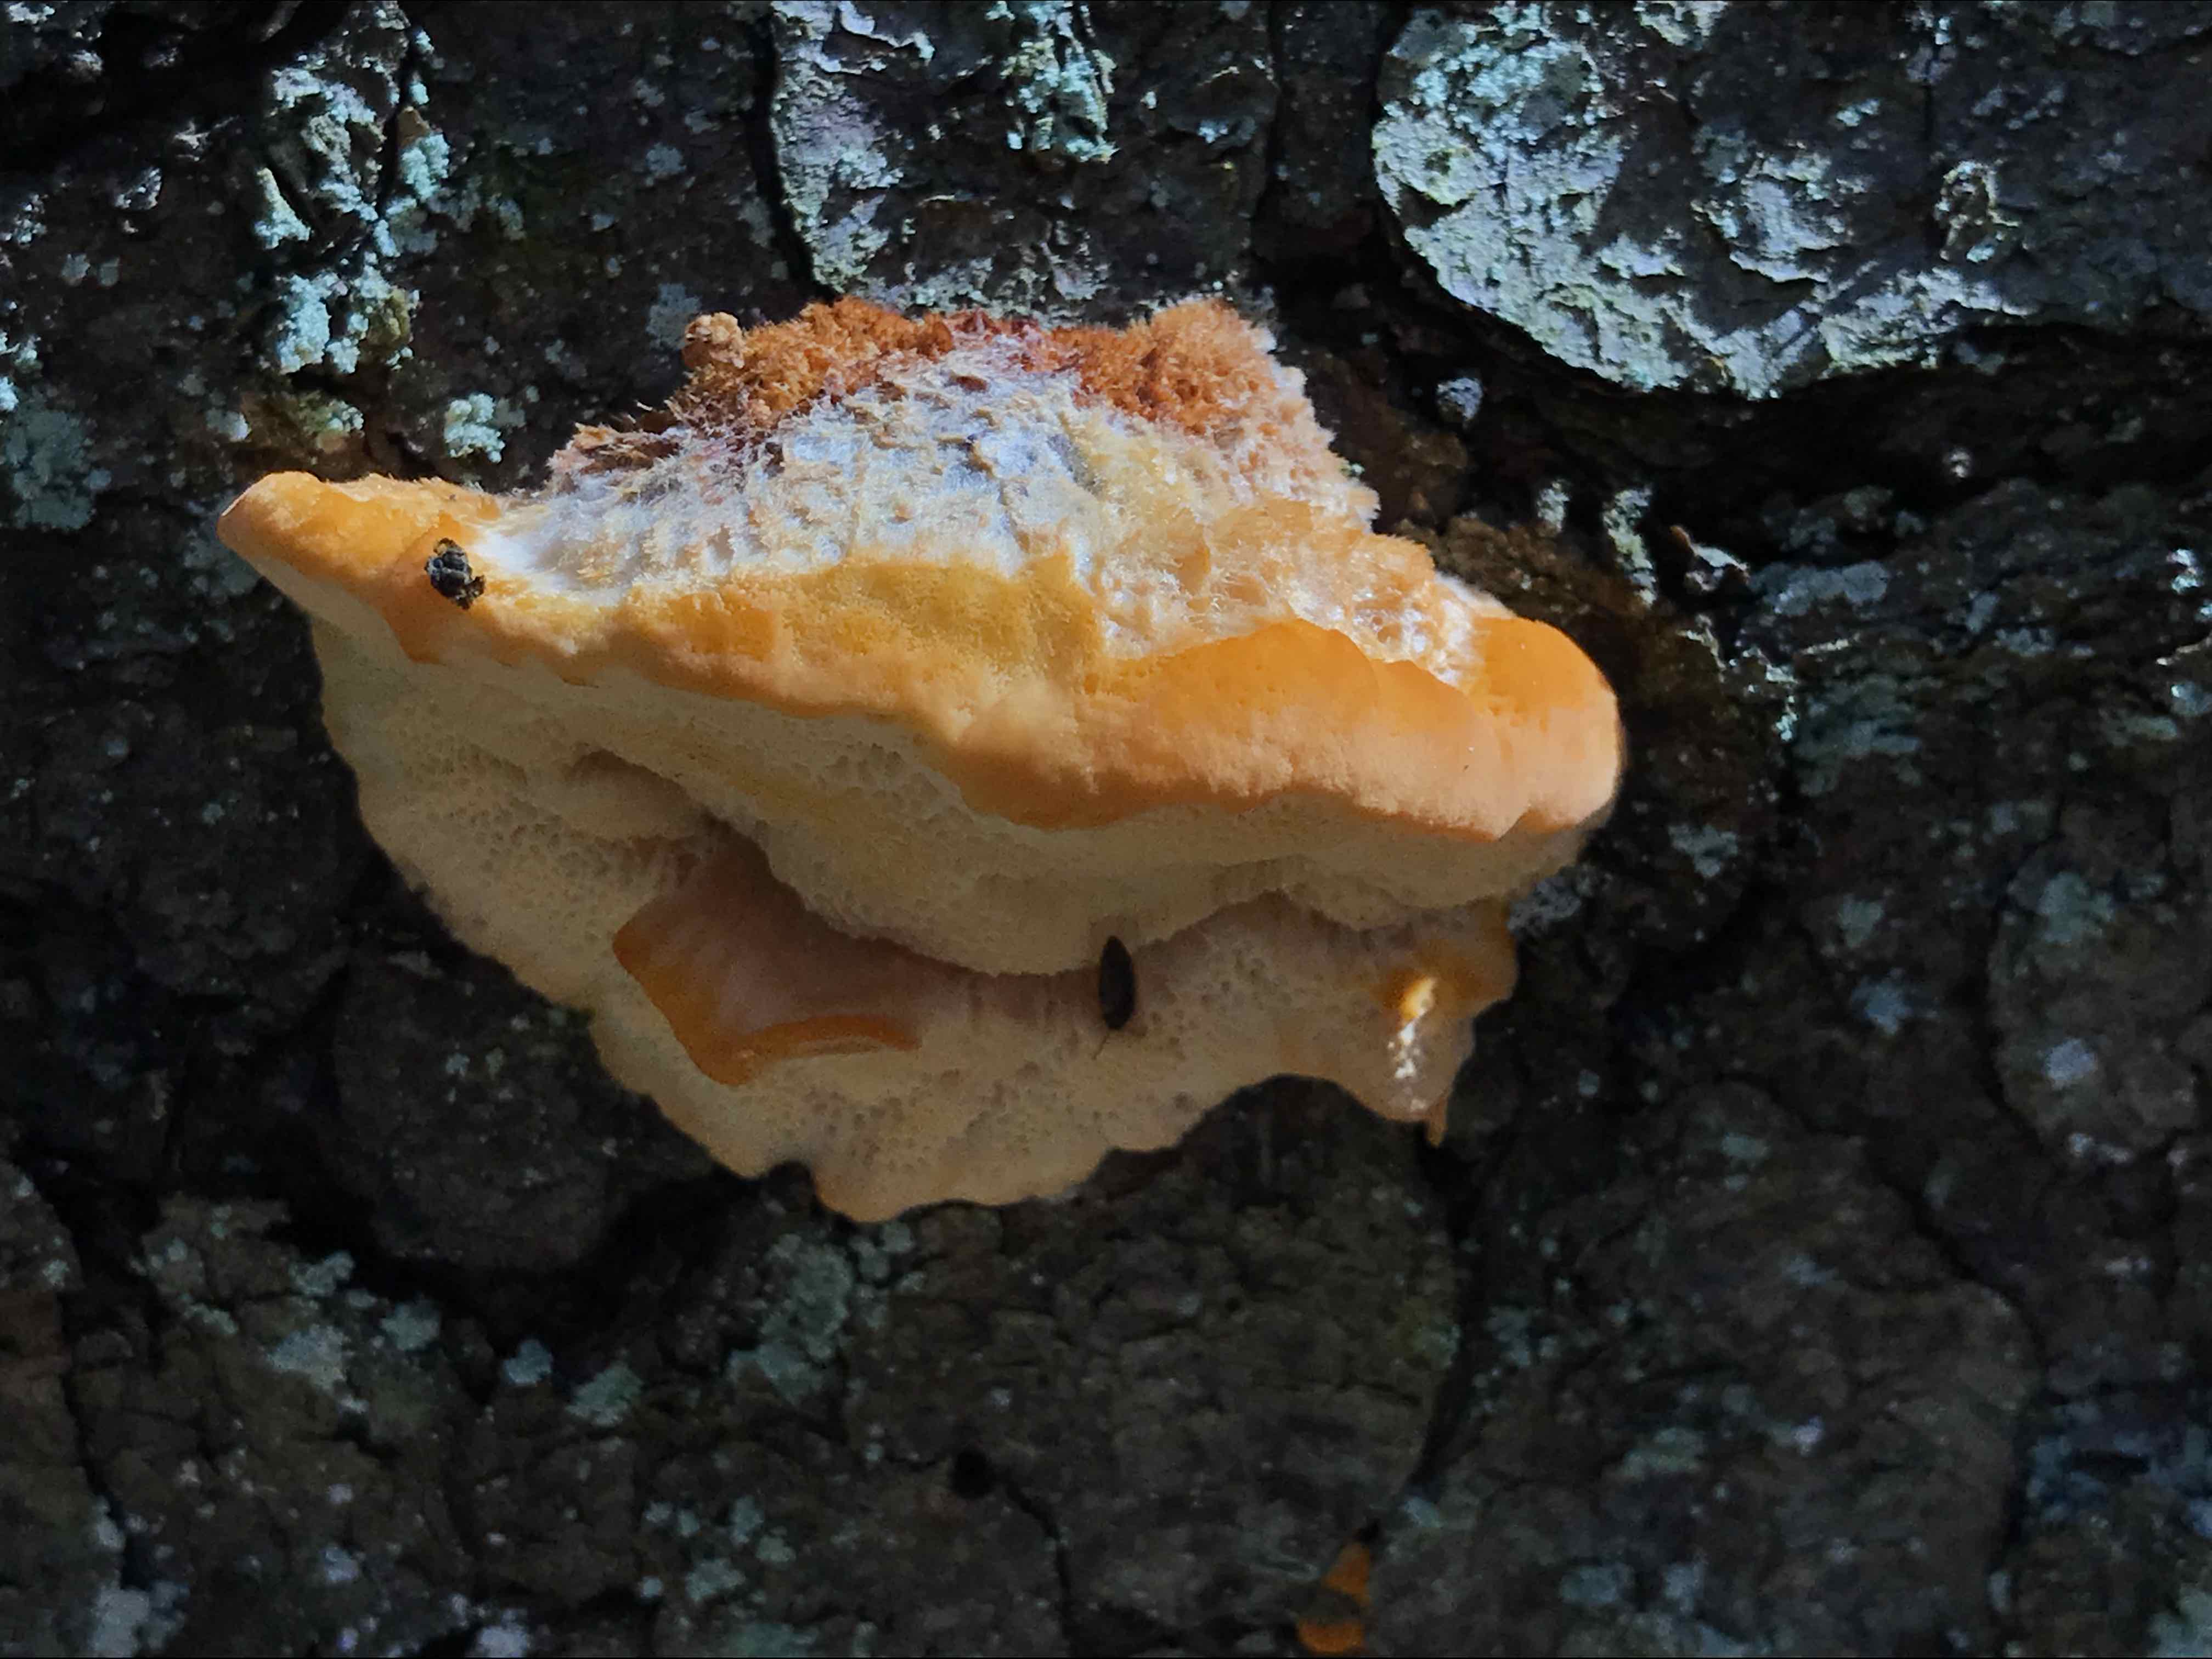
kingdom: Fungi
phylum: Basidiomycota
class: Agaricomycetes
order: Polyporales
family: Pycnoporellaceae
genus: Pycnoporellus
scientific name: Pycnoporellus fulgens
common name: flammeporesvamp
